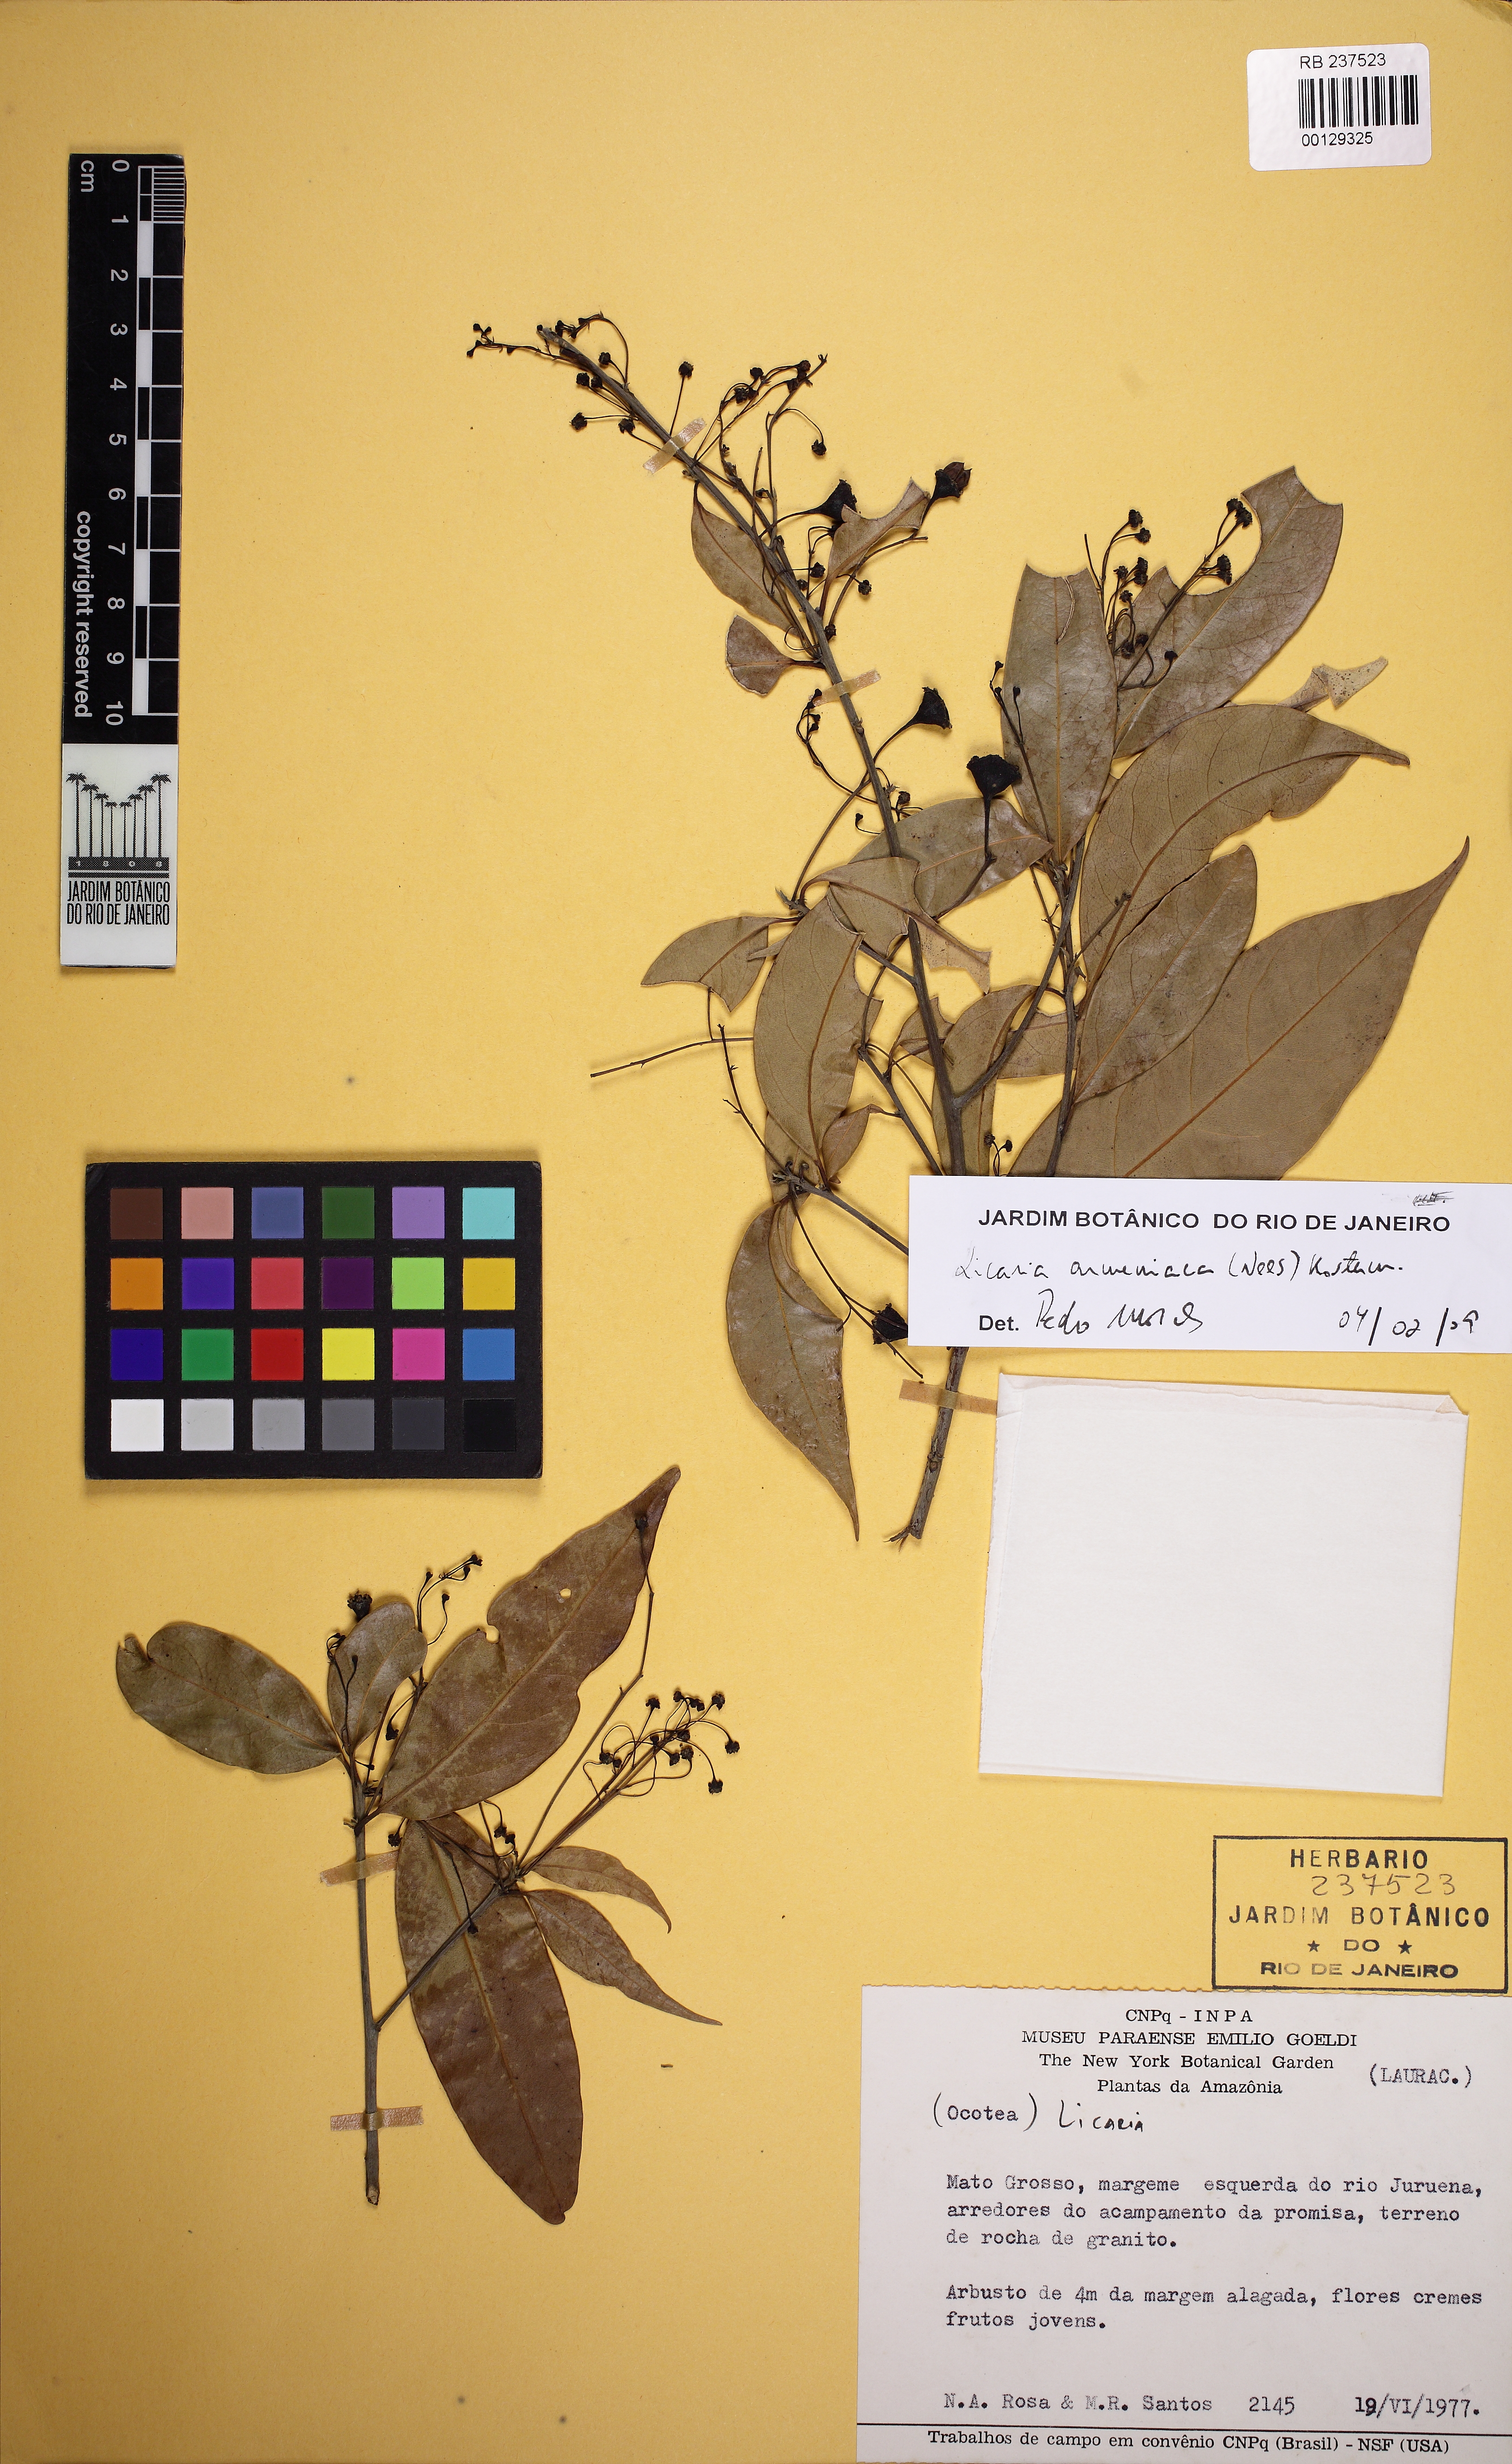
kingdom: Plantae
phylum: Tracheophyta
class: Magnoliopsida
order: Laurales
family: Lauraceae
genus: Licaria
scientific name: Licaria armeniaca
